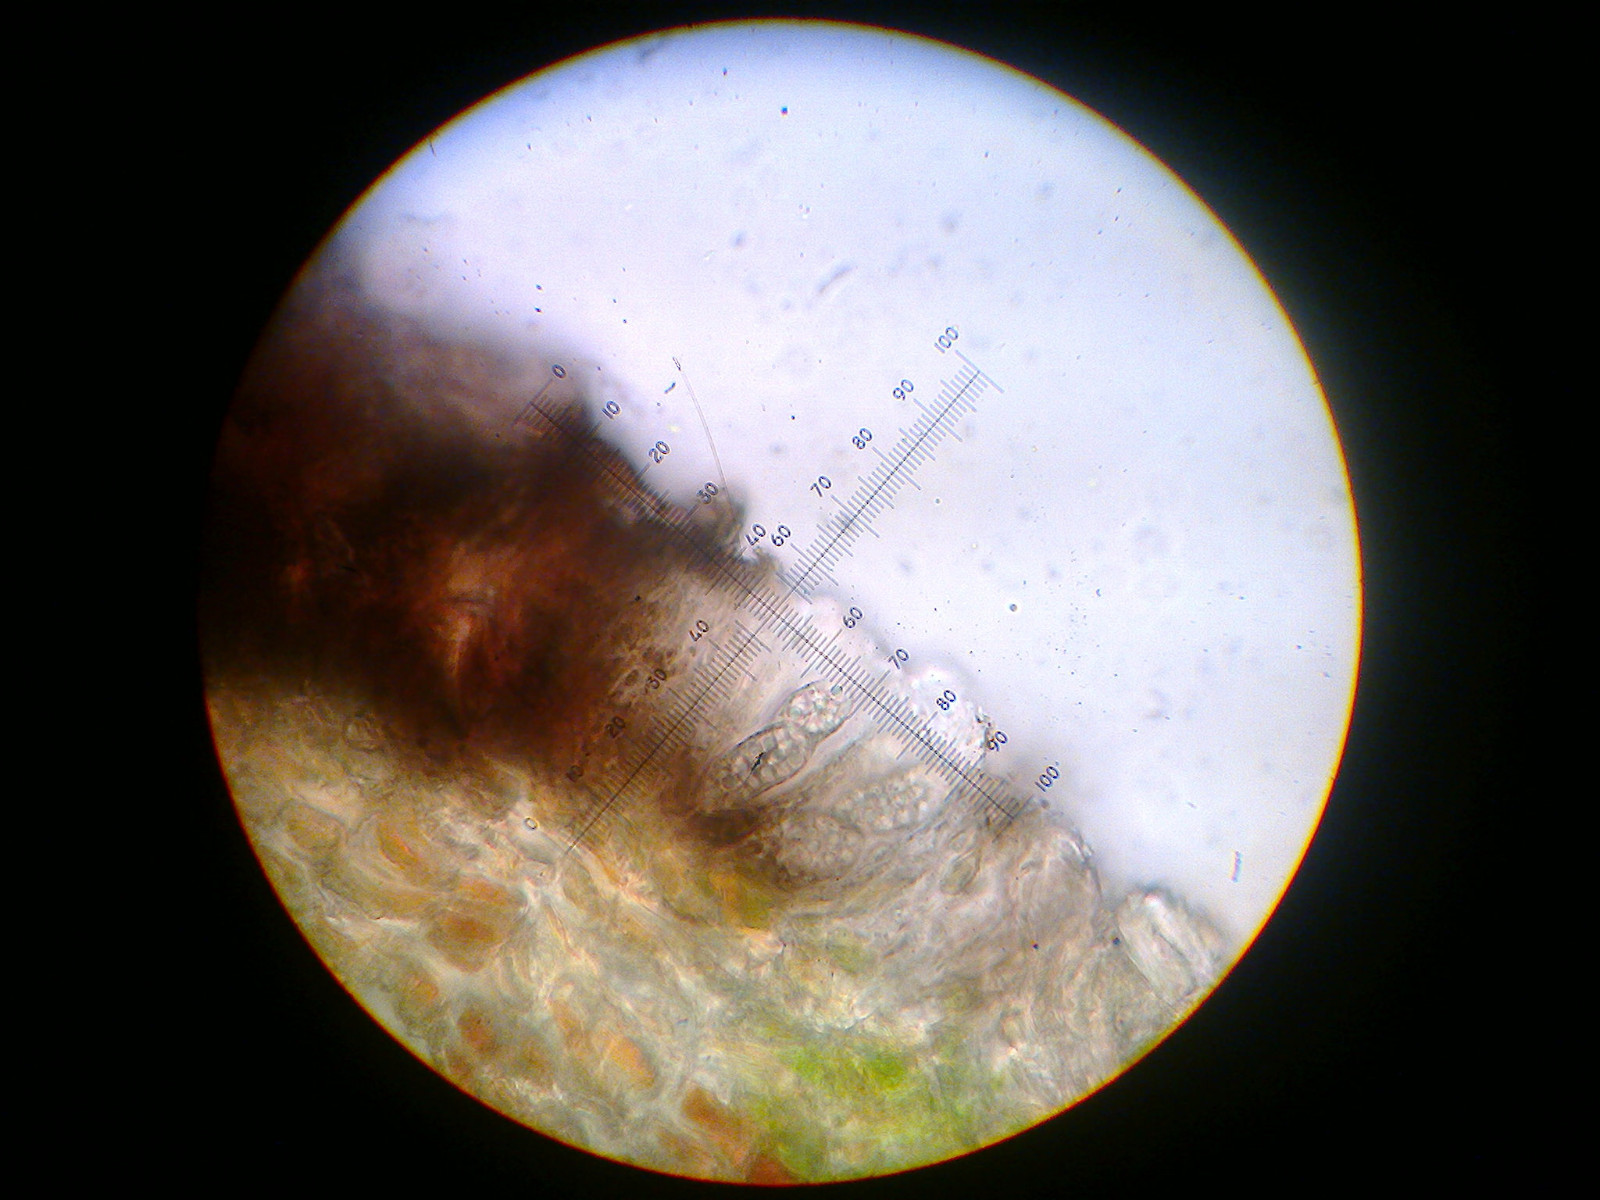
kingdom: Fungi
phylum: Ascomycota
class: Arthoniomycetes
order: Arthoniales
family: Arthoniaceae
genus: Arthothelium
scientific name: Arthothelium ruanum
